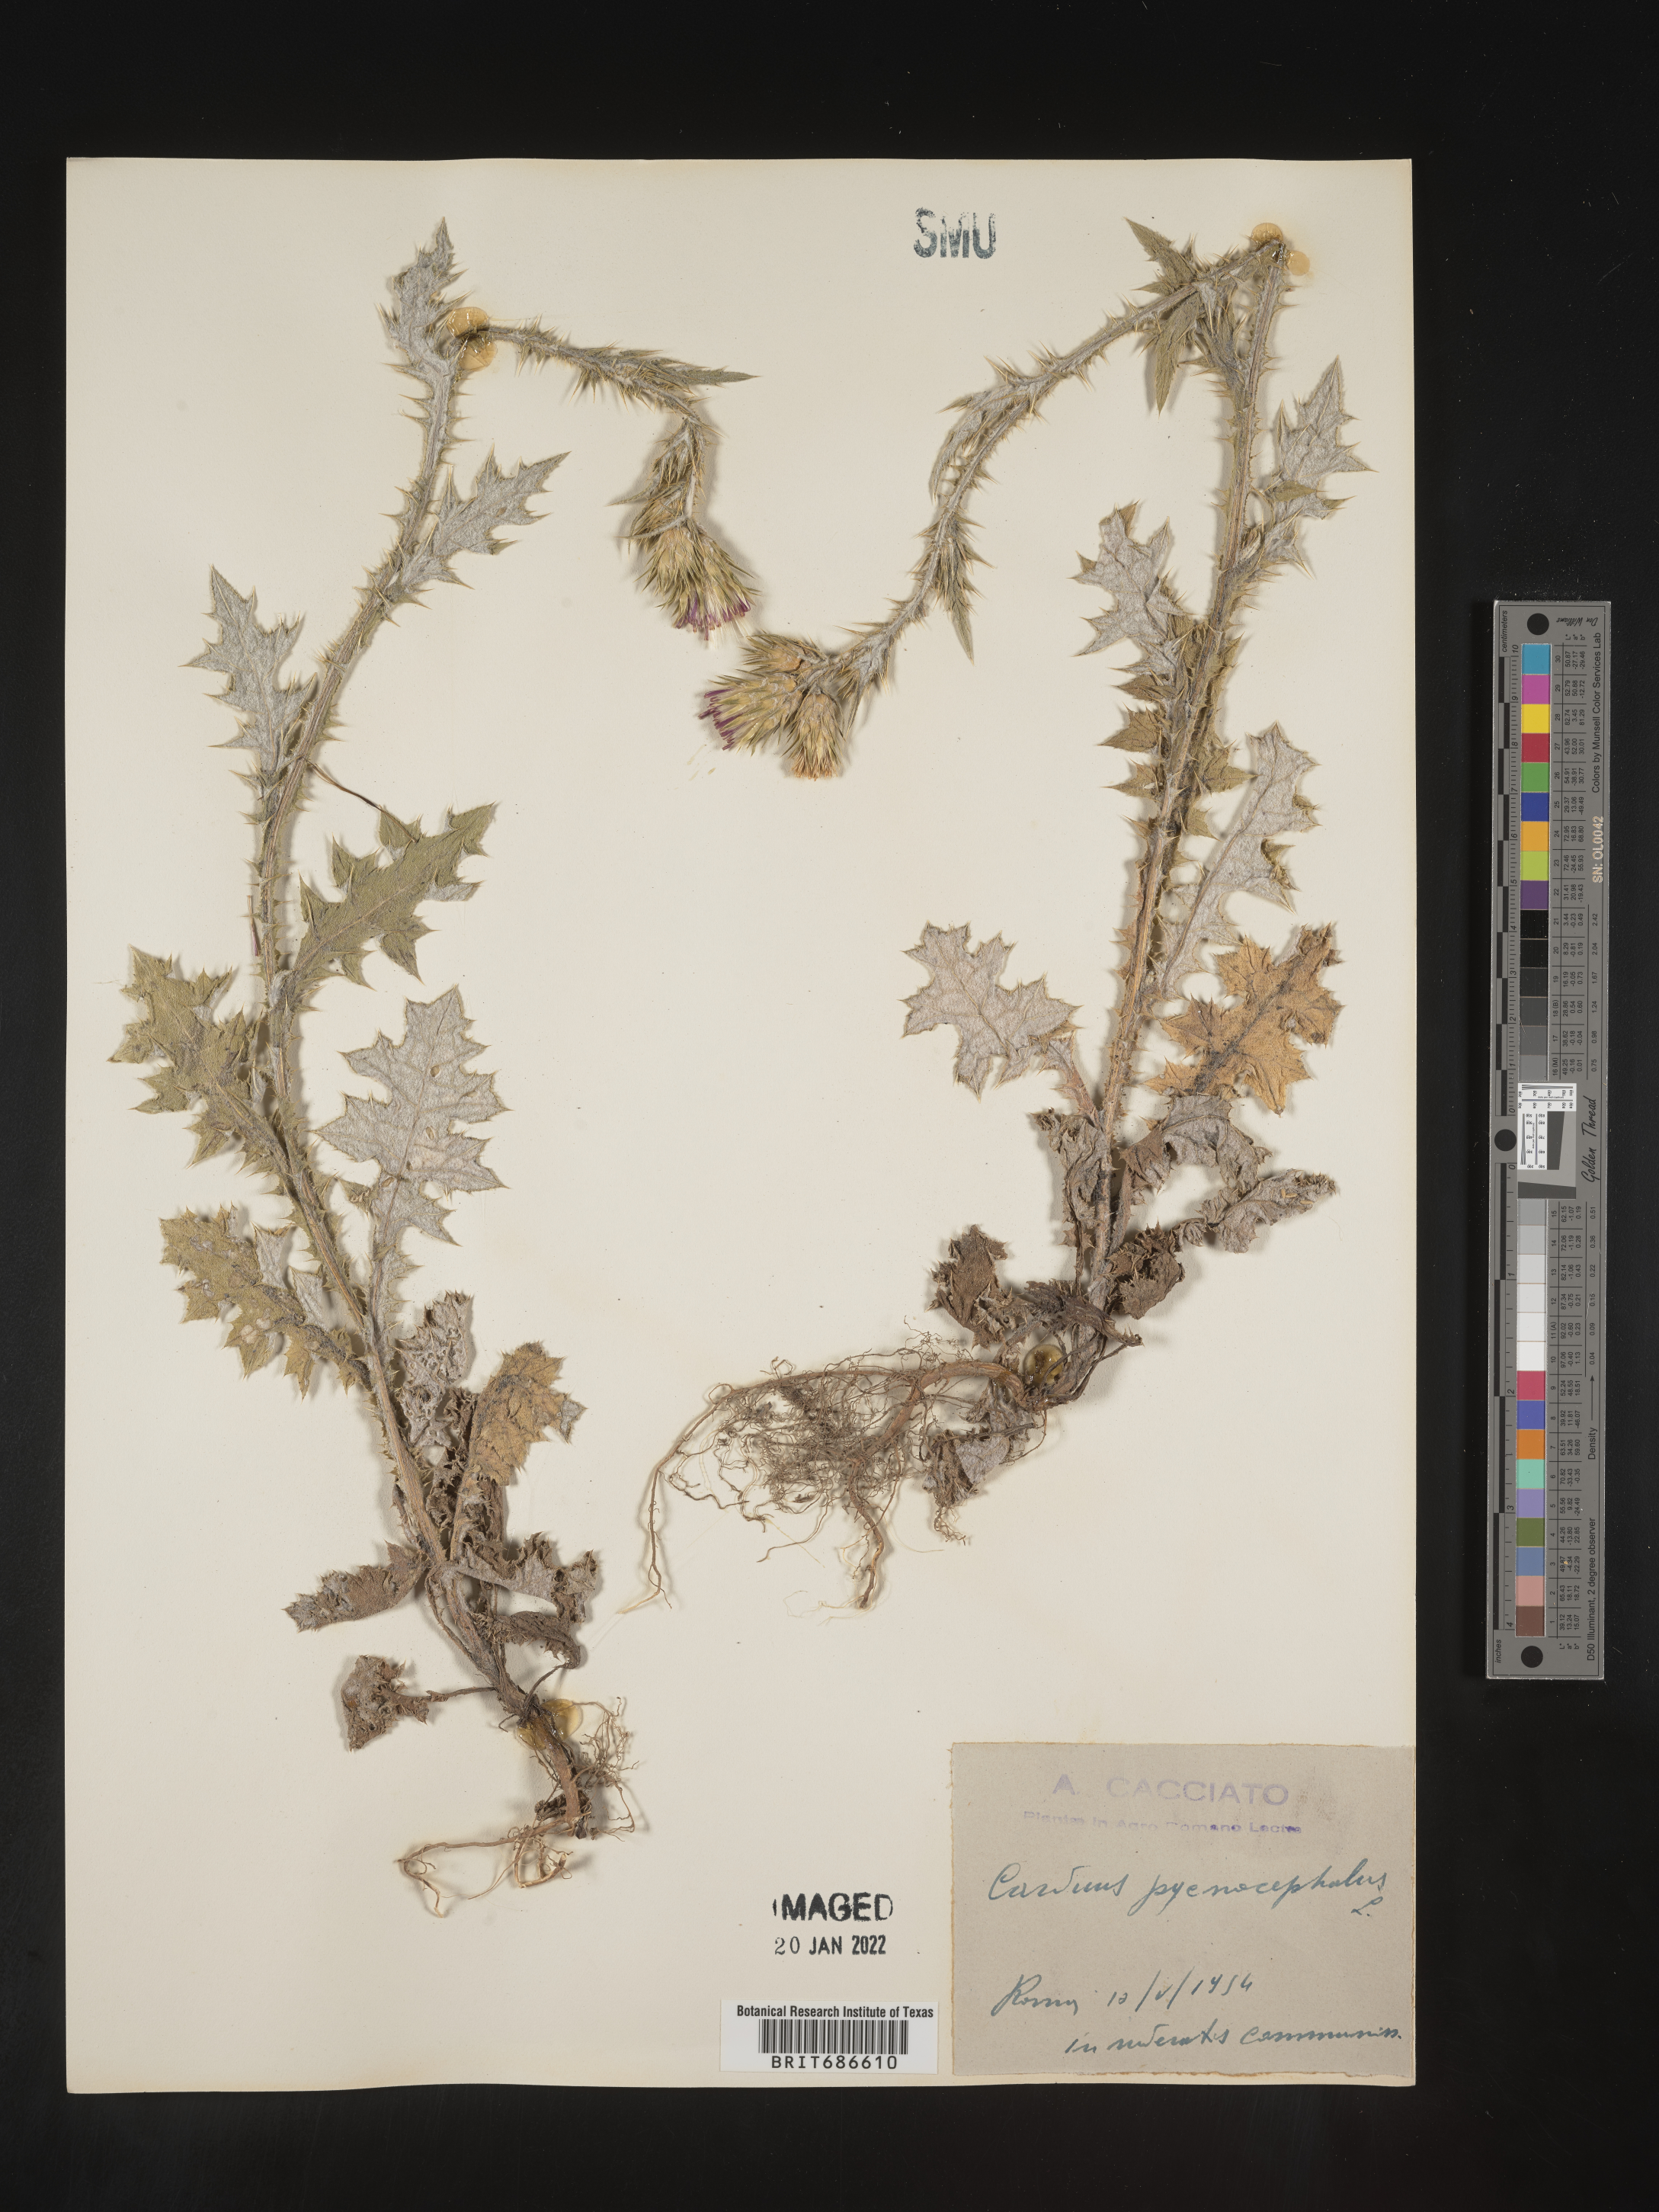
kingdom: Plantae
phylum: Tracheophyta
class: Magnoliopsida
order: Asterales
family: Asteraceae
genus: Carduus
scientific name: Carduus
